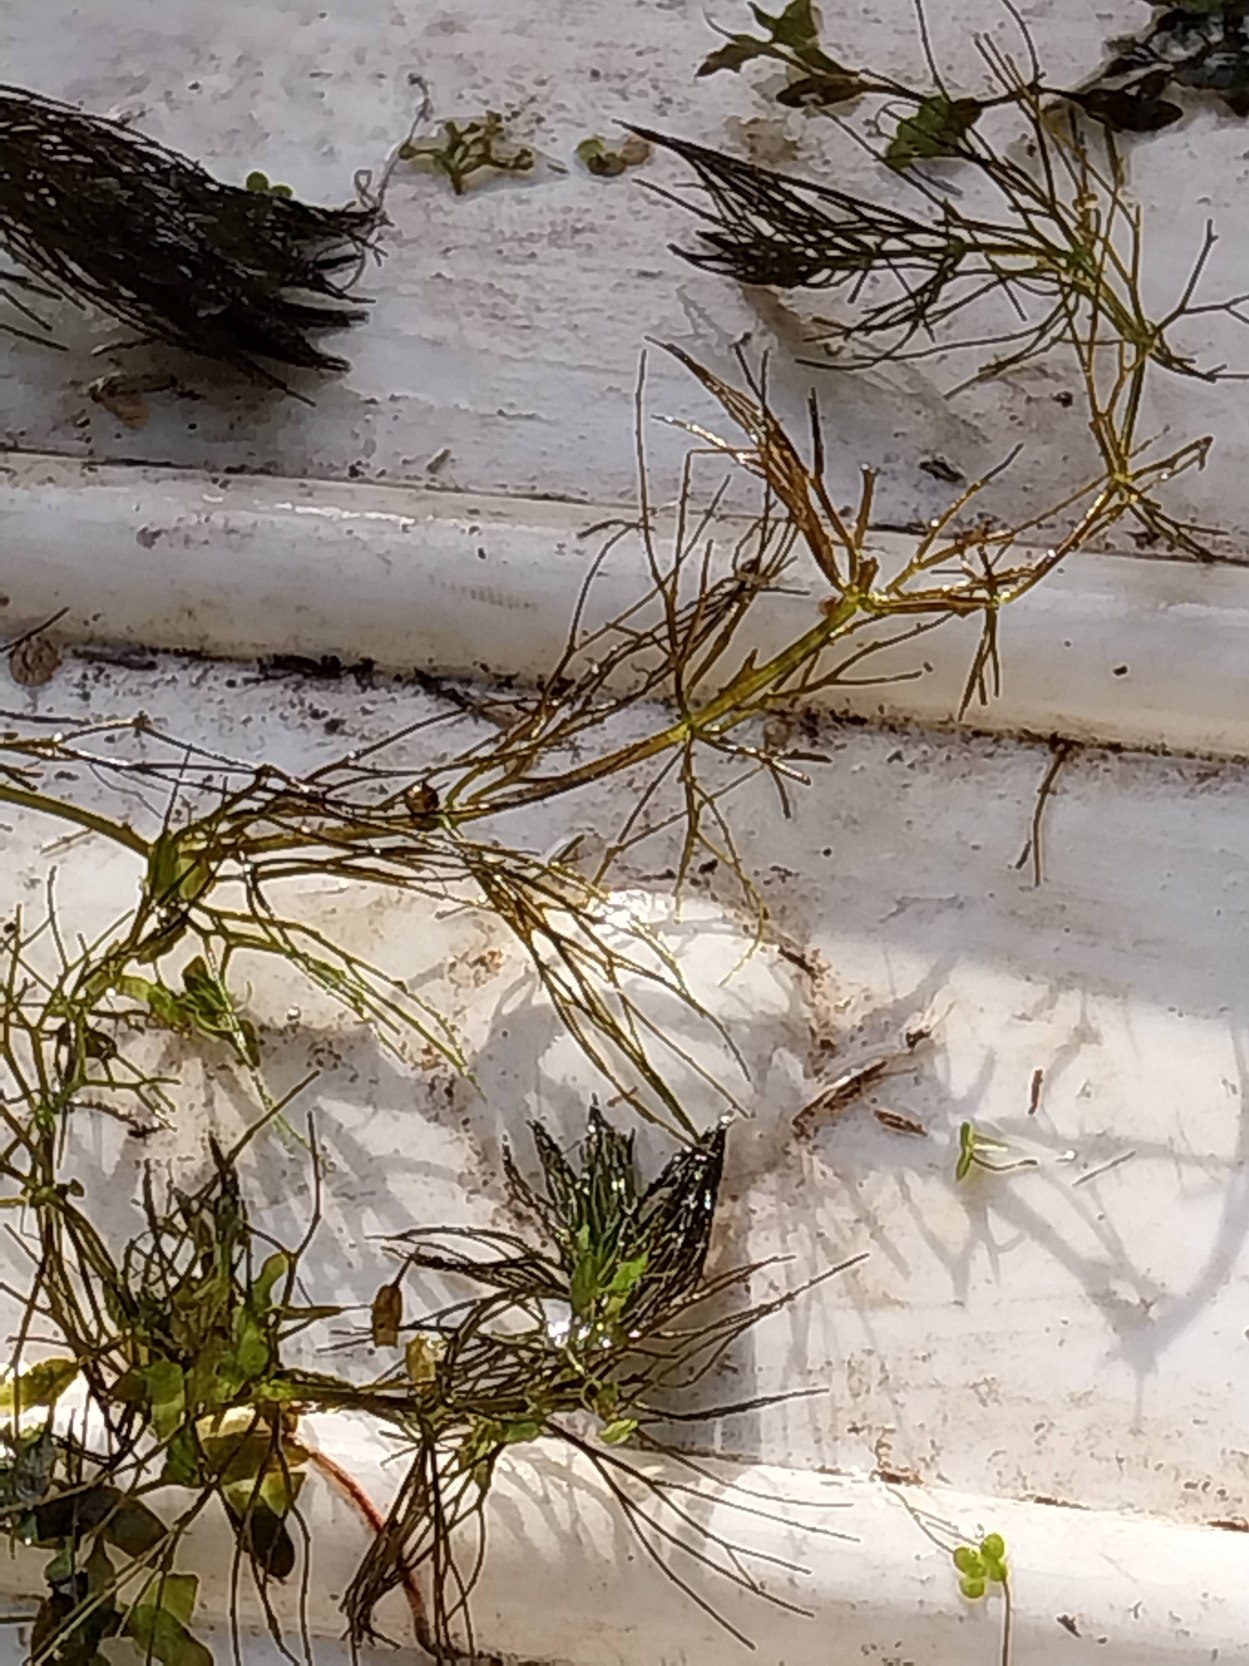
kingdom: Plantae
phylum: Tracheophyta
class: Magnoliopsida
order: Ceratophyllales
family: Ceratophyllaceae
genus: Ceratophyllum
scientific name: Ceratophyllum submersum
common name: Tornløs hornblad
